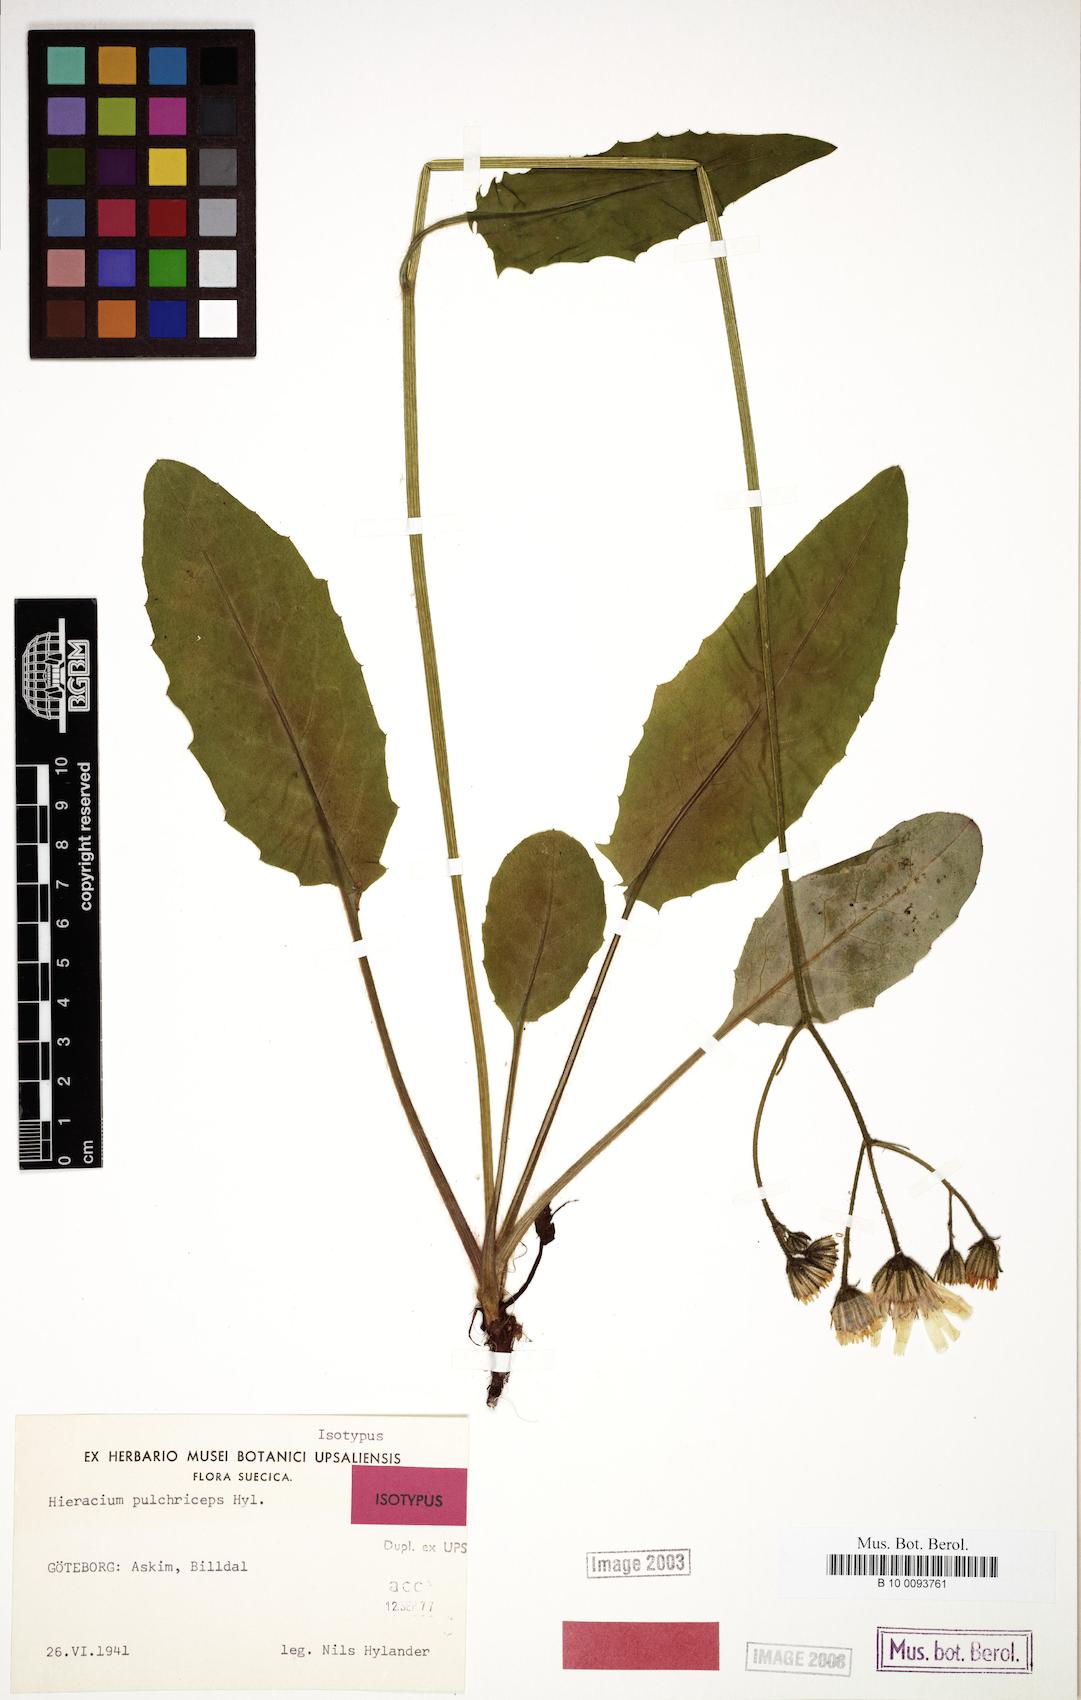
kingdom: Plantae
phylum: Tracheophyta
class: Magnoliopsida
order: Asterales
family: Asteraceae
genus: Hieracium
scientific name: Hieracium pulchriceps
